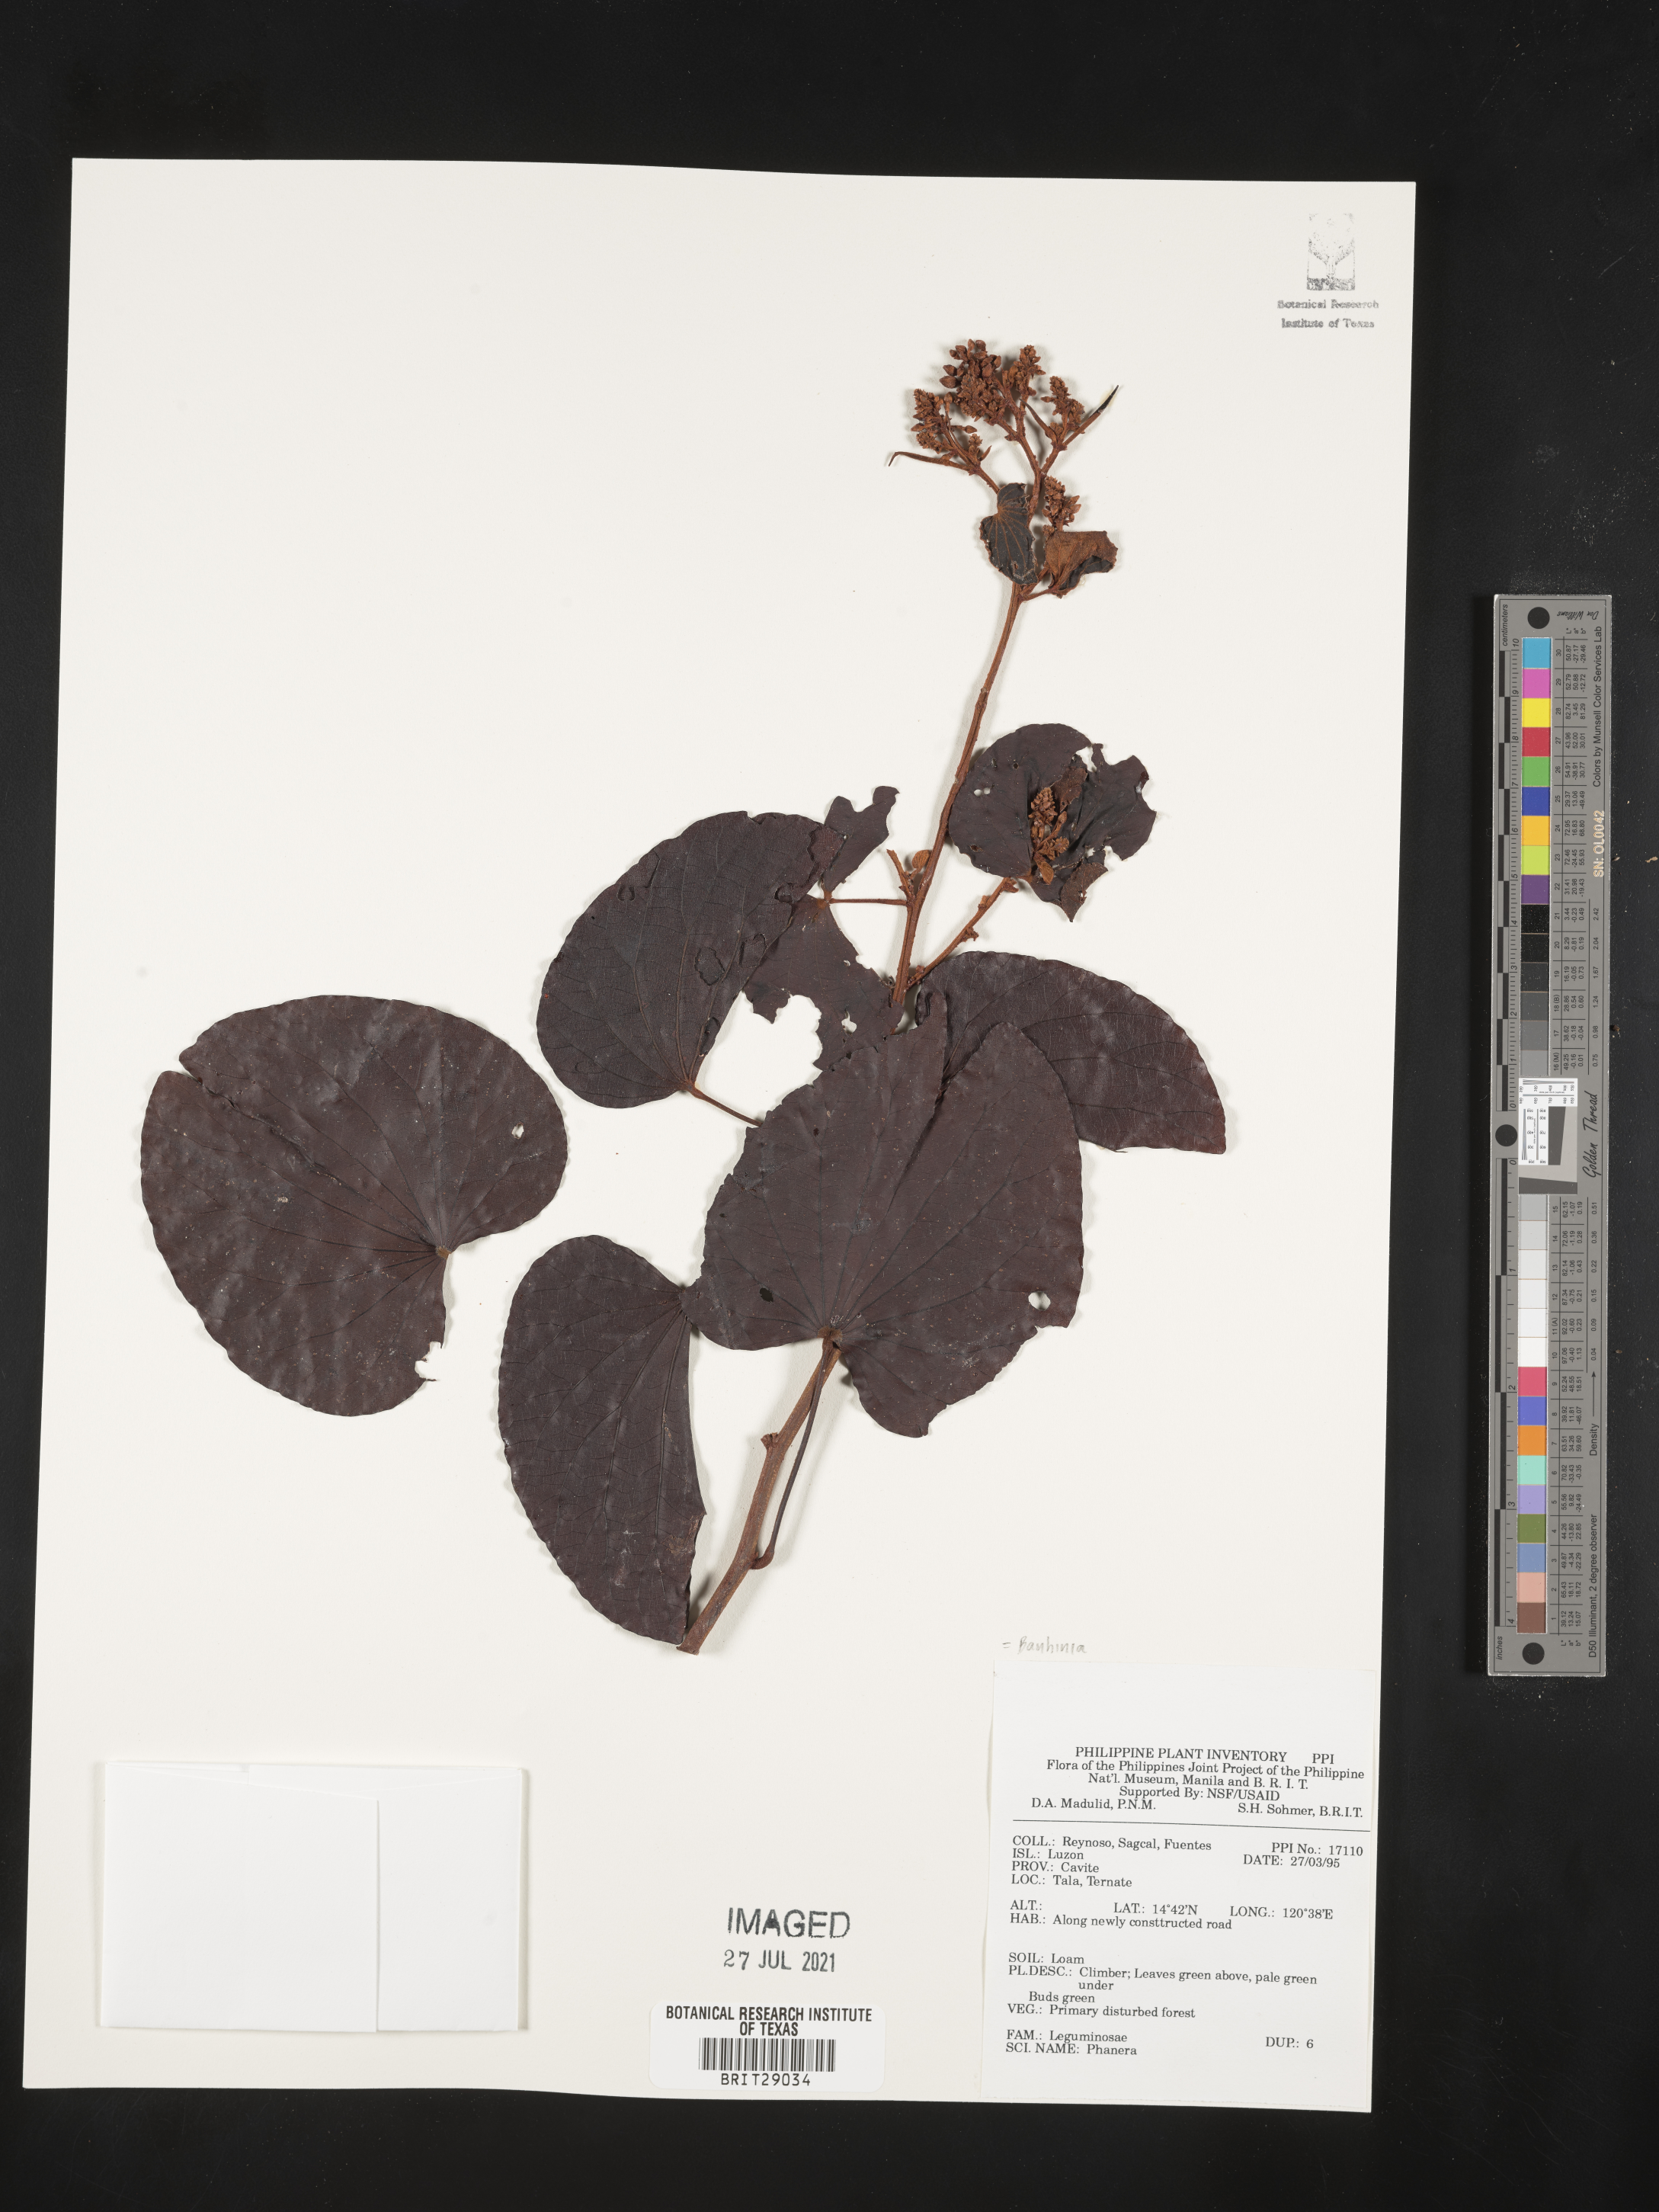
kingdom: Plantae
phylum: Tracheophyta
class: Magnoliopsida
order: Fabales
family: Fabaceae
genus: Bauhinia
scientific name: Bauhinia
